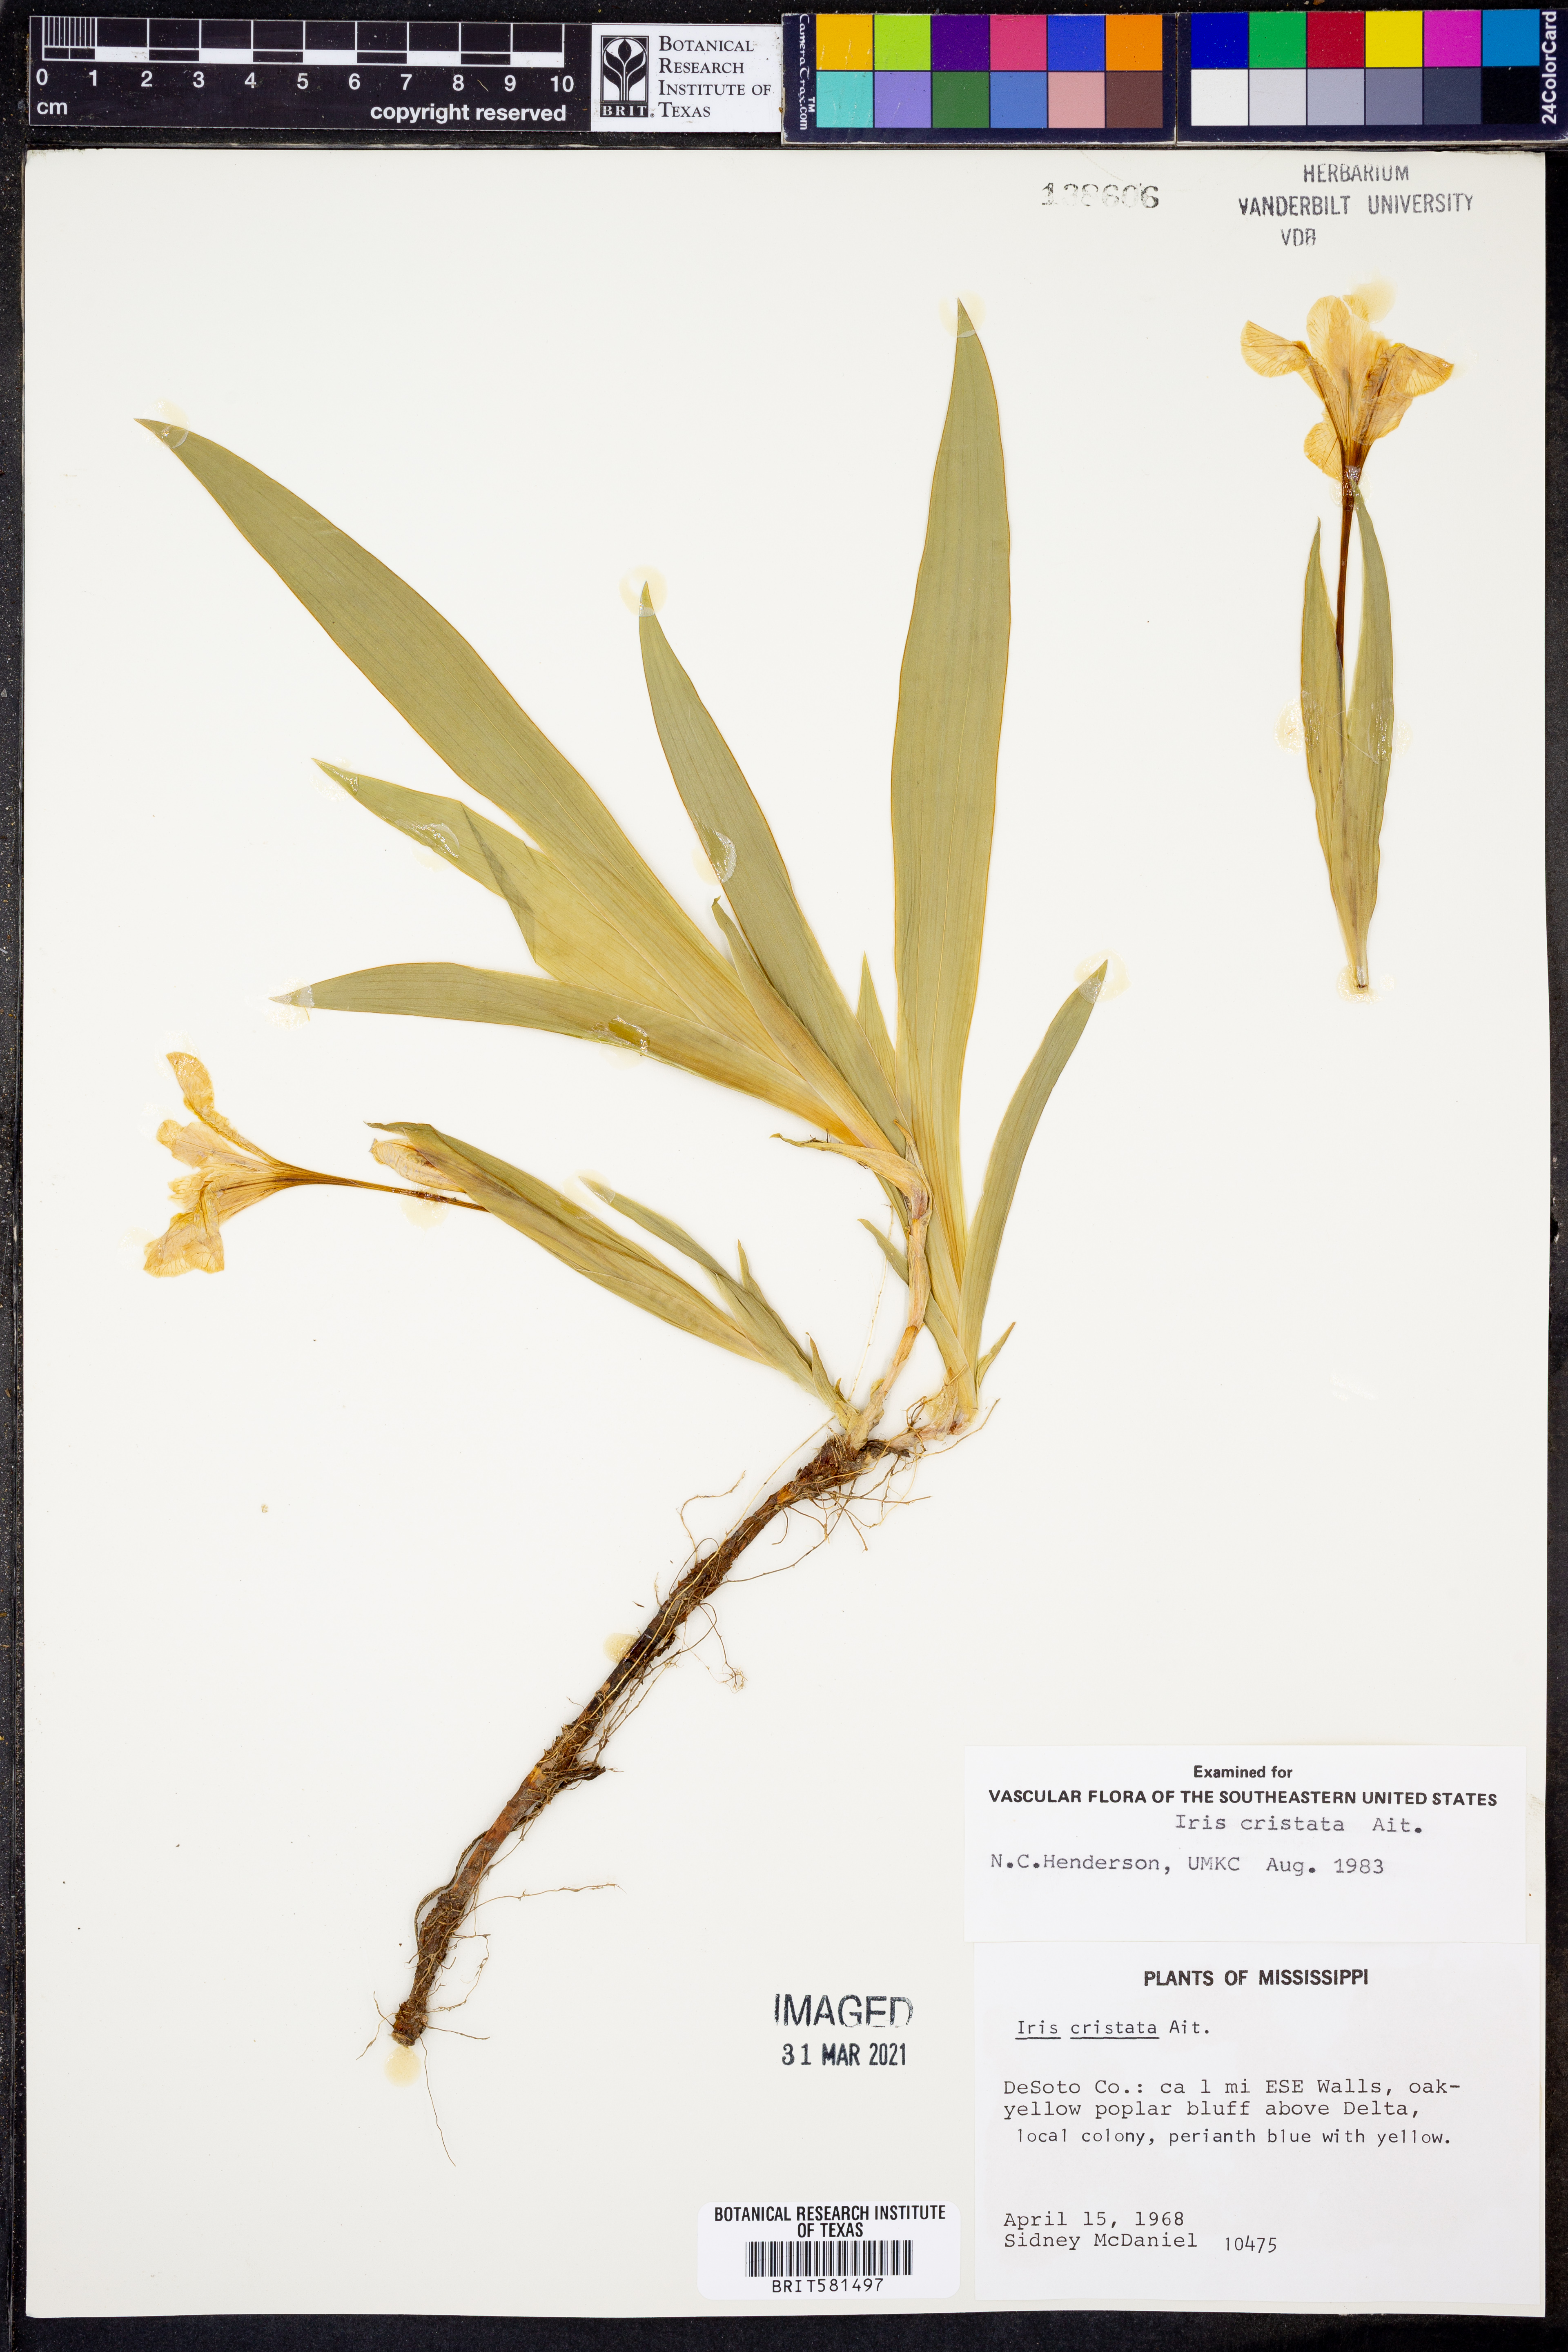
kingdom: Plantae
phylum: Tracheophyta
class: Liliopsida
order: Asparagales
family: Iridaceae
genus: Iris
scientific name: Iris cristata
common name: Crested iris
